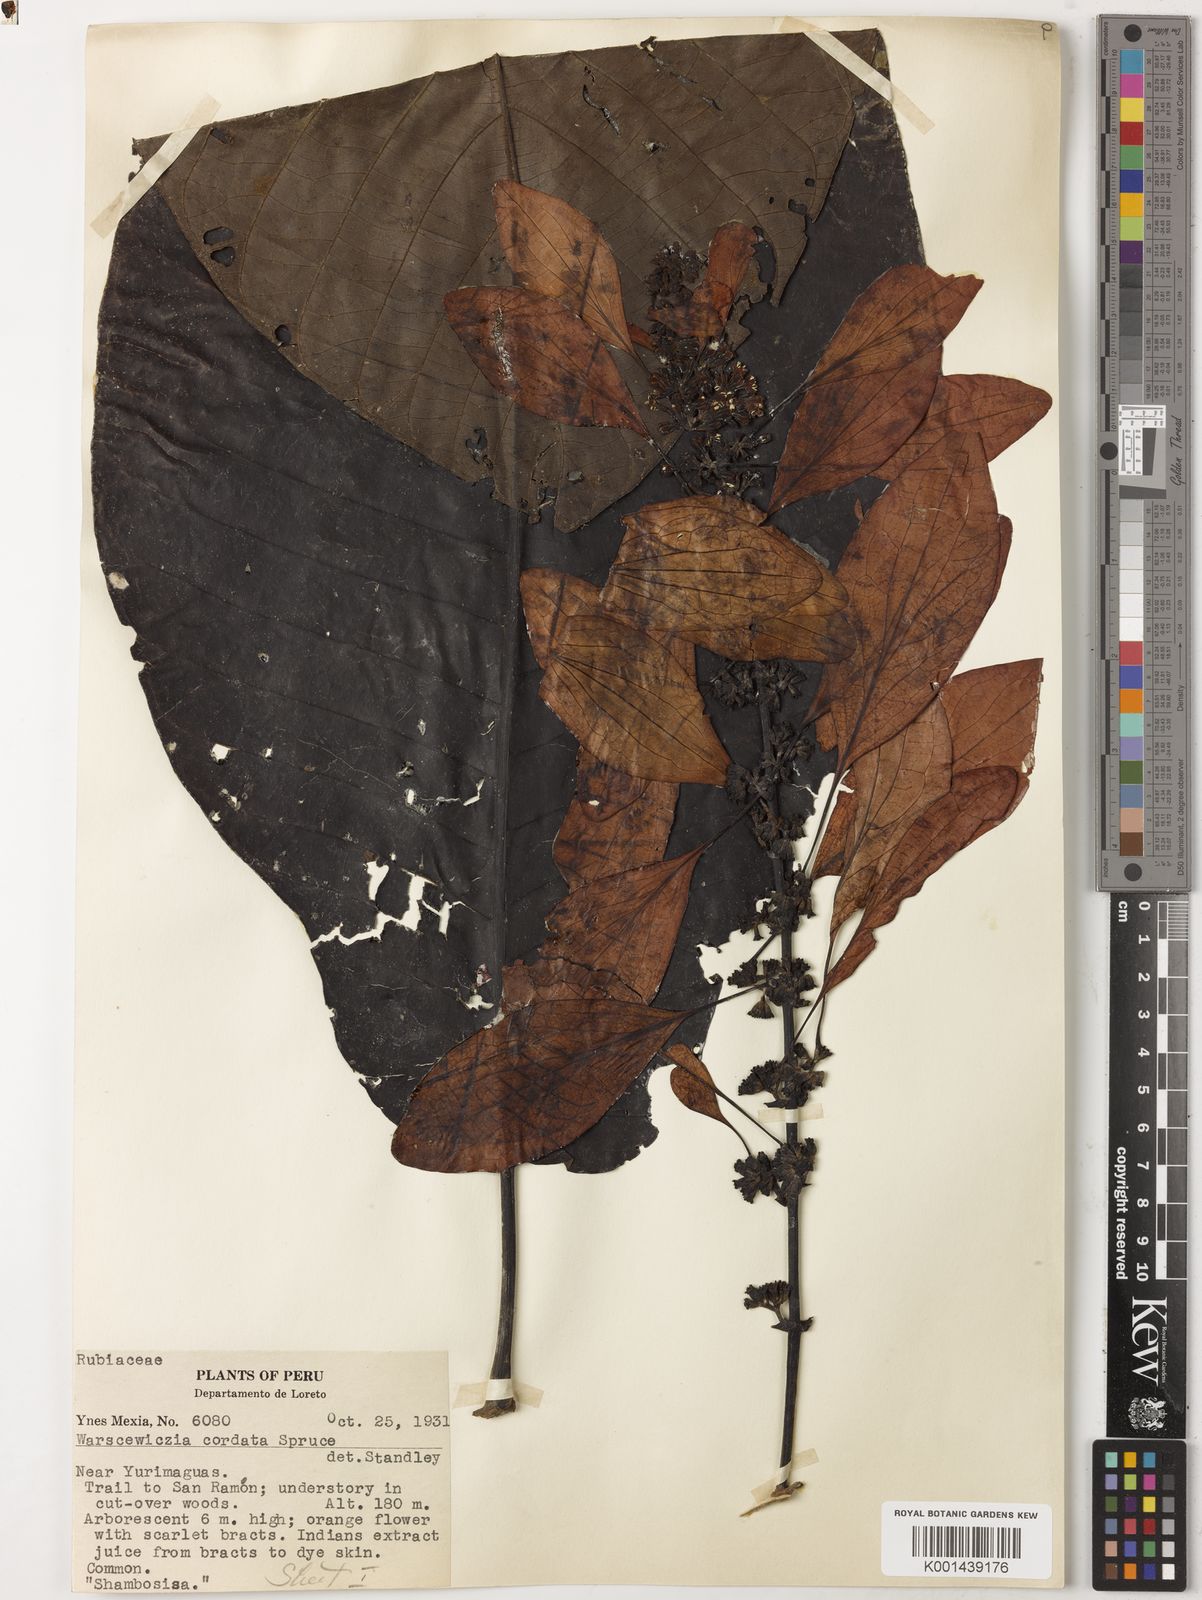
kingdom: Plantae
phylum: Tracheophyta
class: Magnoliopsida
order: Gentianales
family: Rubiaceae
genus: Warszewiczia
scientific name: Warszewiczia
